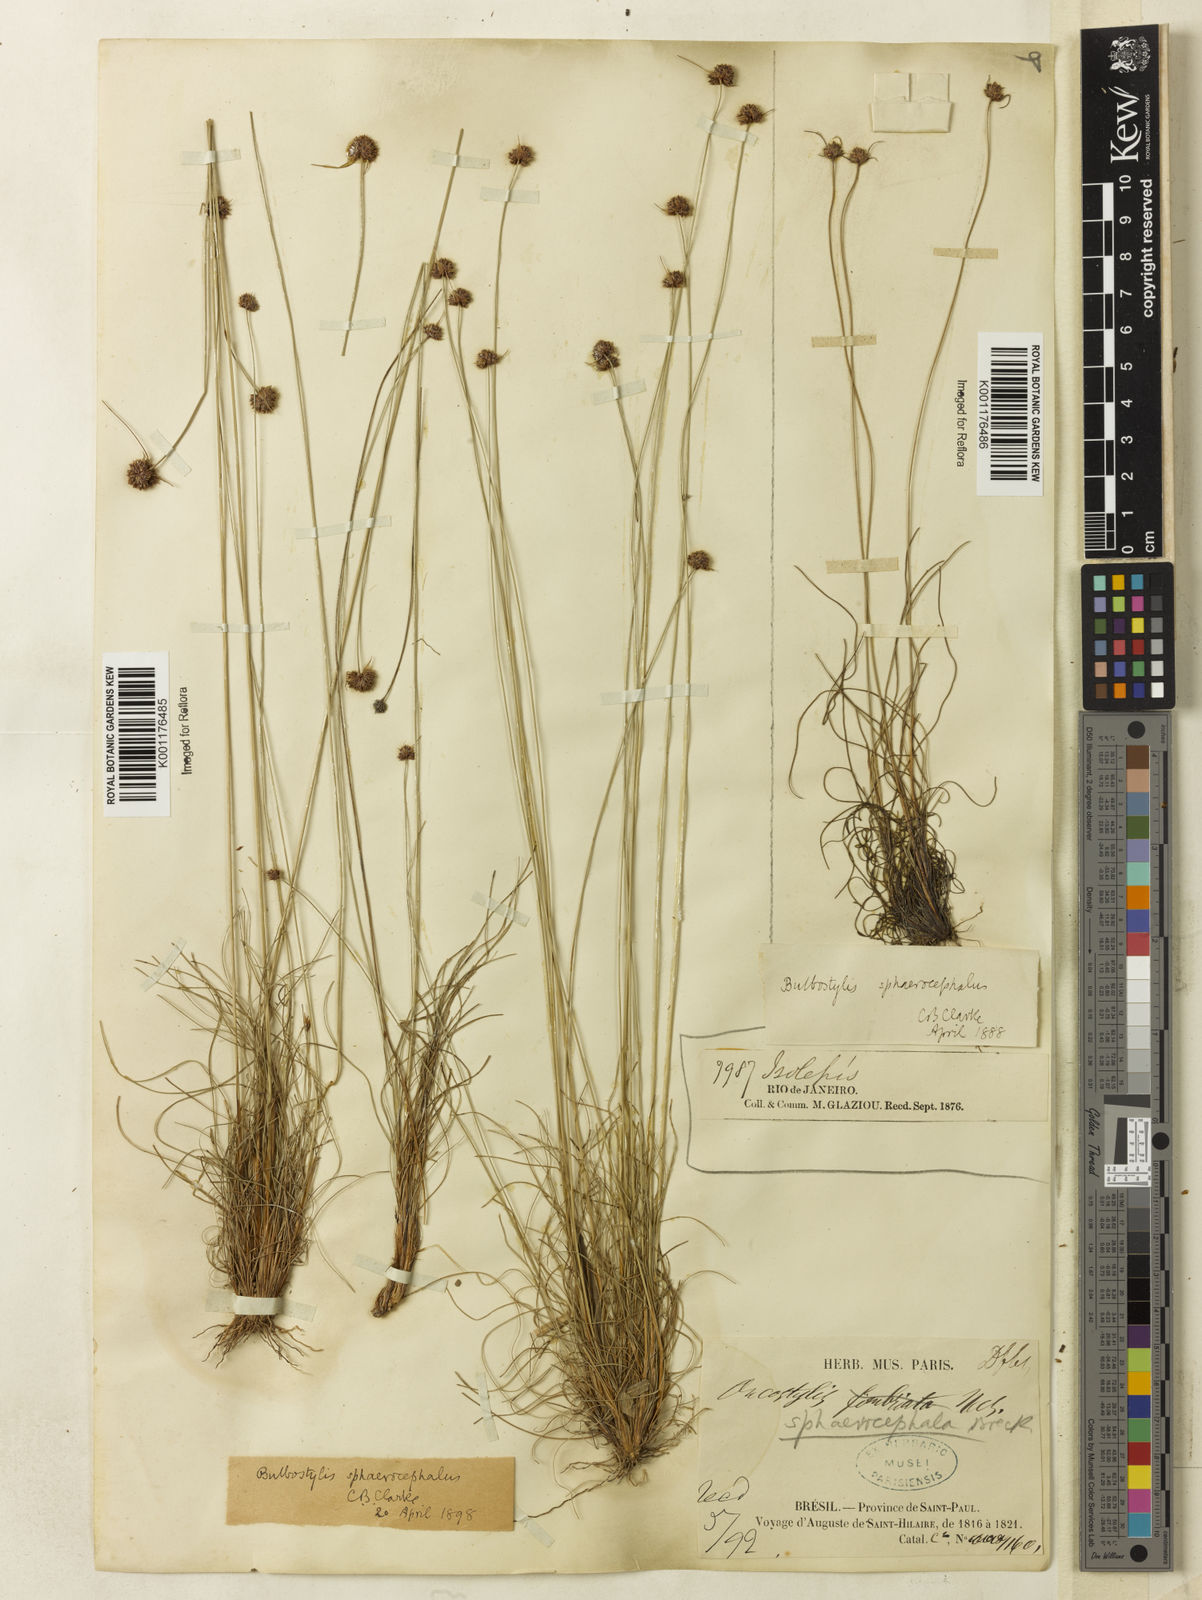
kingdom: Plantae
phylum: Tracheophyta
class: Liliopsida
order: Poales
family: Cyperaceae
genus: Bulbostylis
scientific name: Bulbostylis
